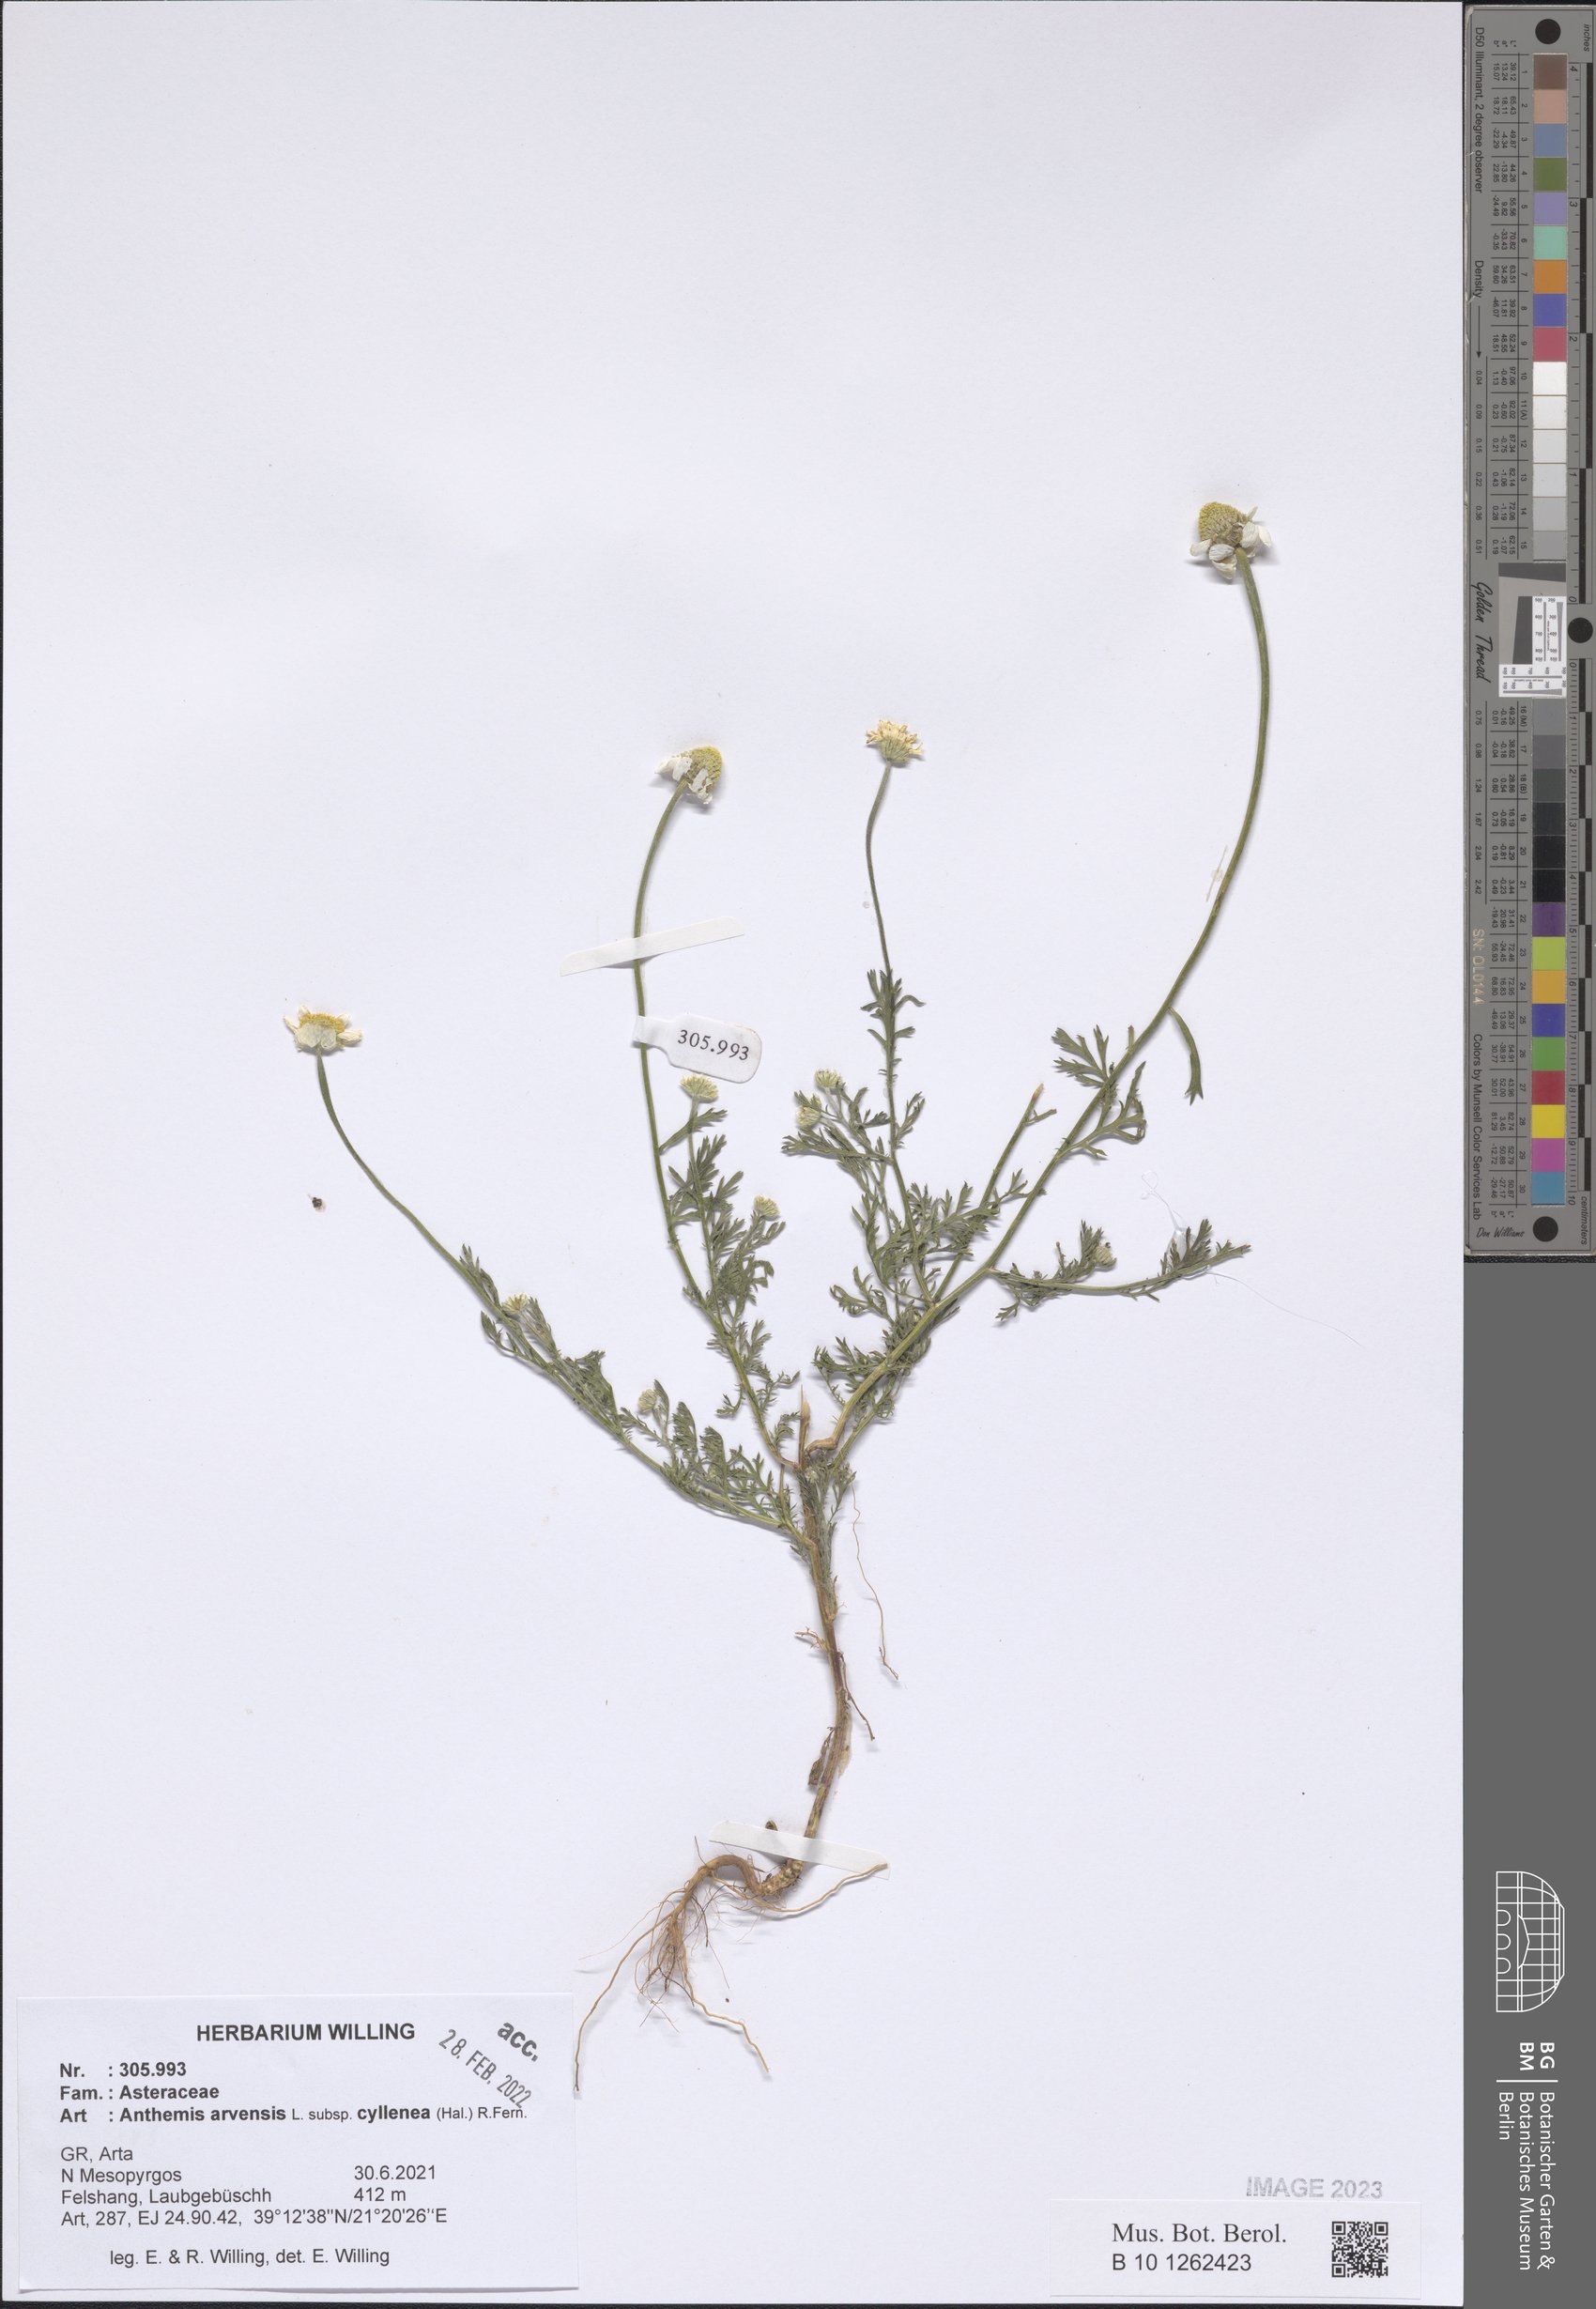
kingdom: Plantae
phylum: Tracheophyta
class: Magnoliopsida
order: Asterales
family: Asteraceae
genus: Anthemis
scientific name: Anthemis arvensis
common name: Corn chamomile
